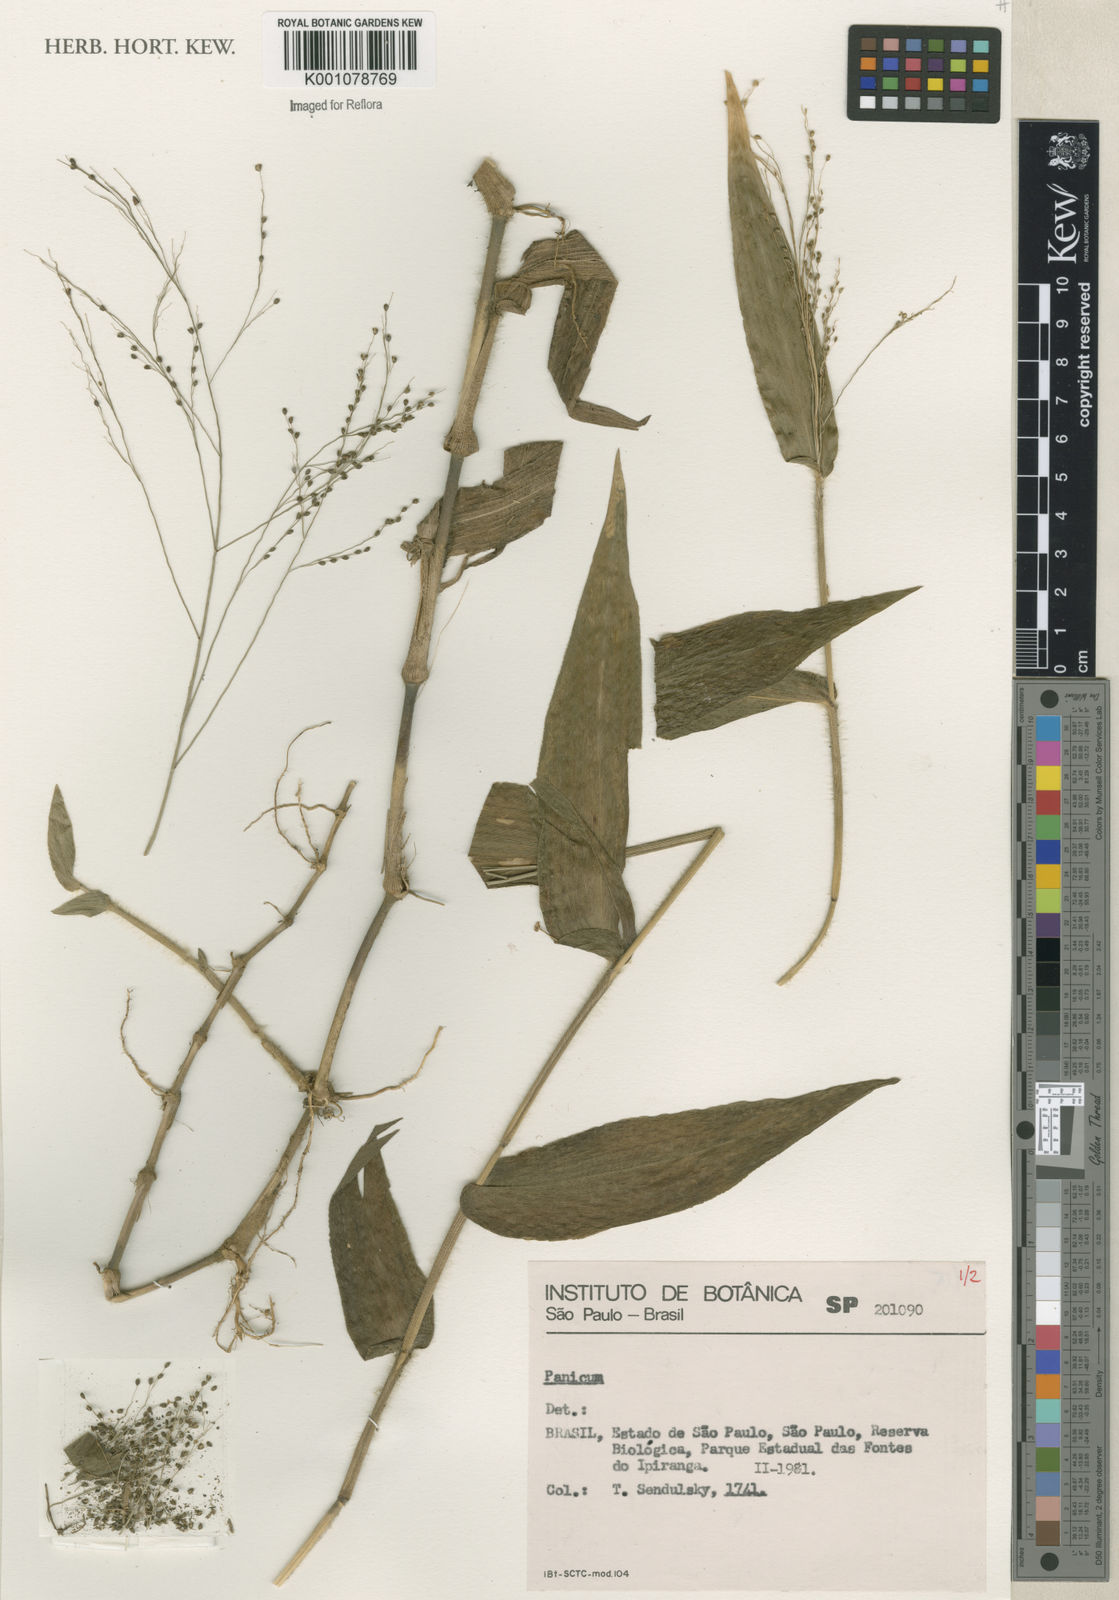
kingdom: Plantae
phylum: Tracheophyta
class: Liliopsida
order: Poales
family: Poaceae
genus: Panicum
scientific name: Panicum
